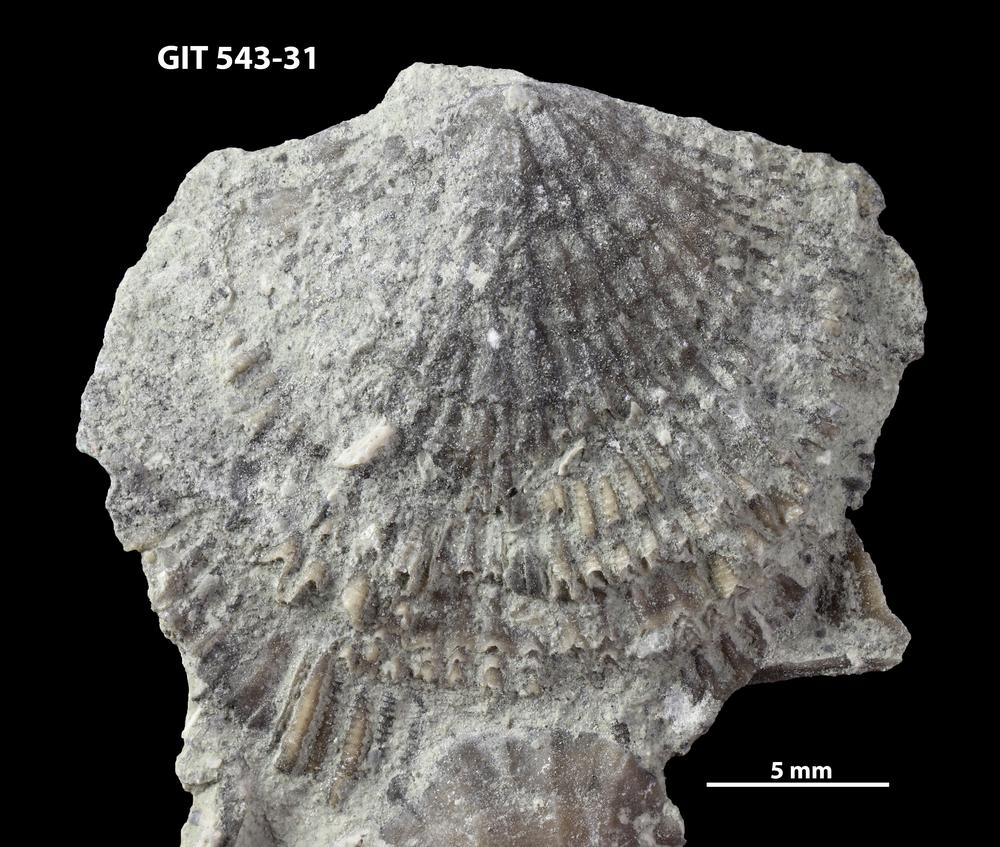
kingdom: Animalia
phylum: Brachiopoda
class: Rhynchonellata
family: Clitambonitidae
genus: Clitambonites
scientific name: Clitambonites Orthisina schmidti
